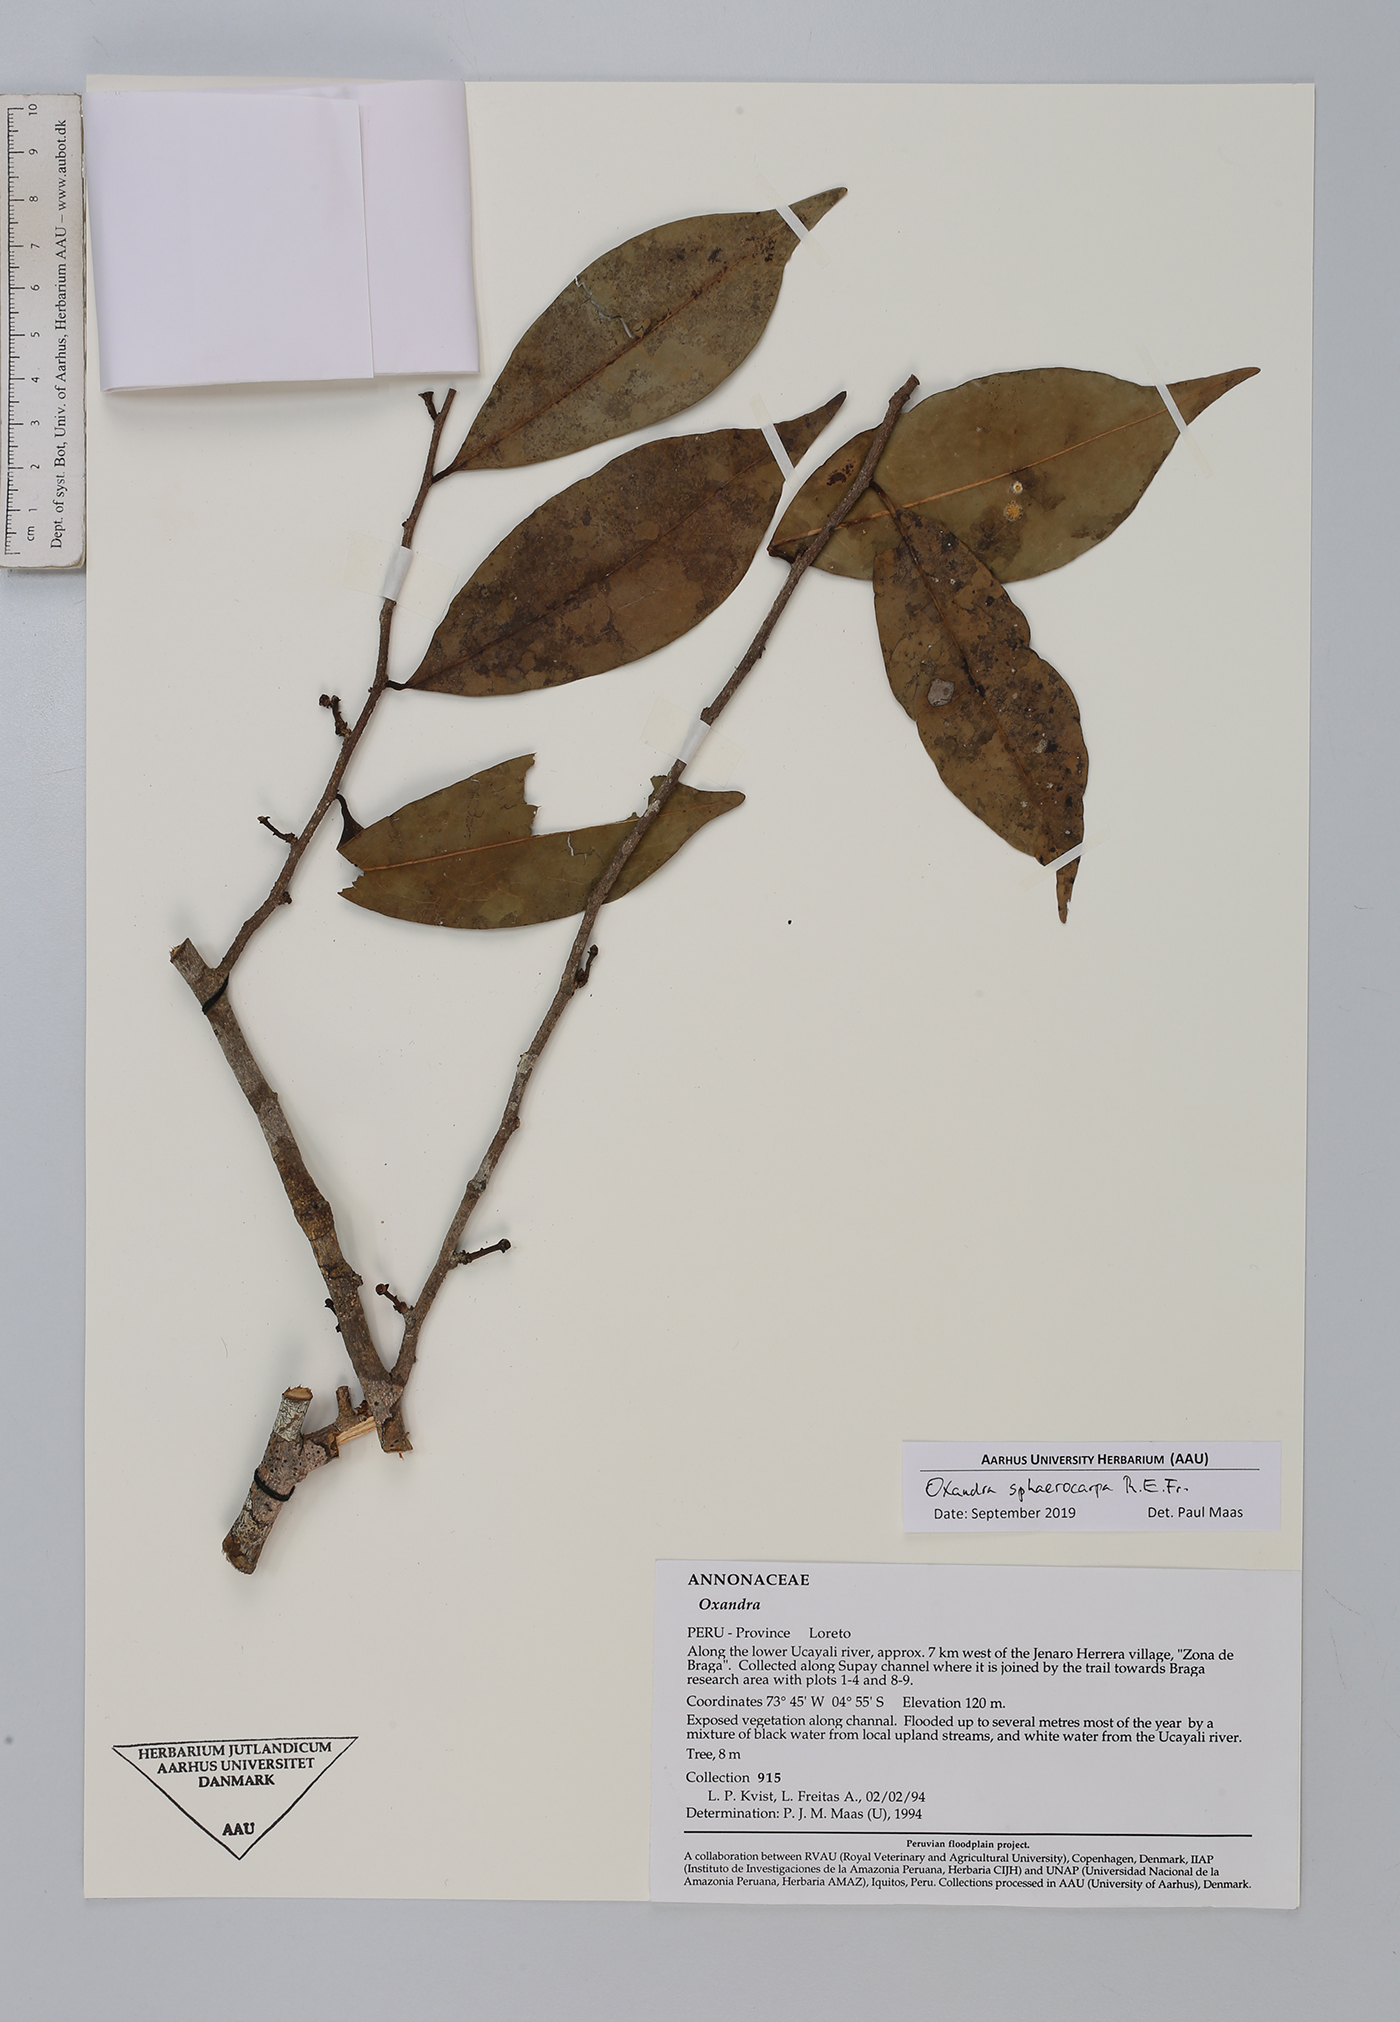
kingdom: Plantae
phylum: Tracheophyta
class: Magnoliopsida
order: Magnoliales
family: Annonaceae
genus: Oxandra
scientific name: Oxandra sphaerocarpa
